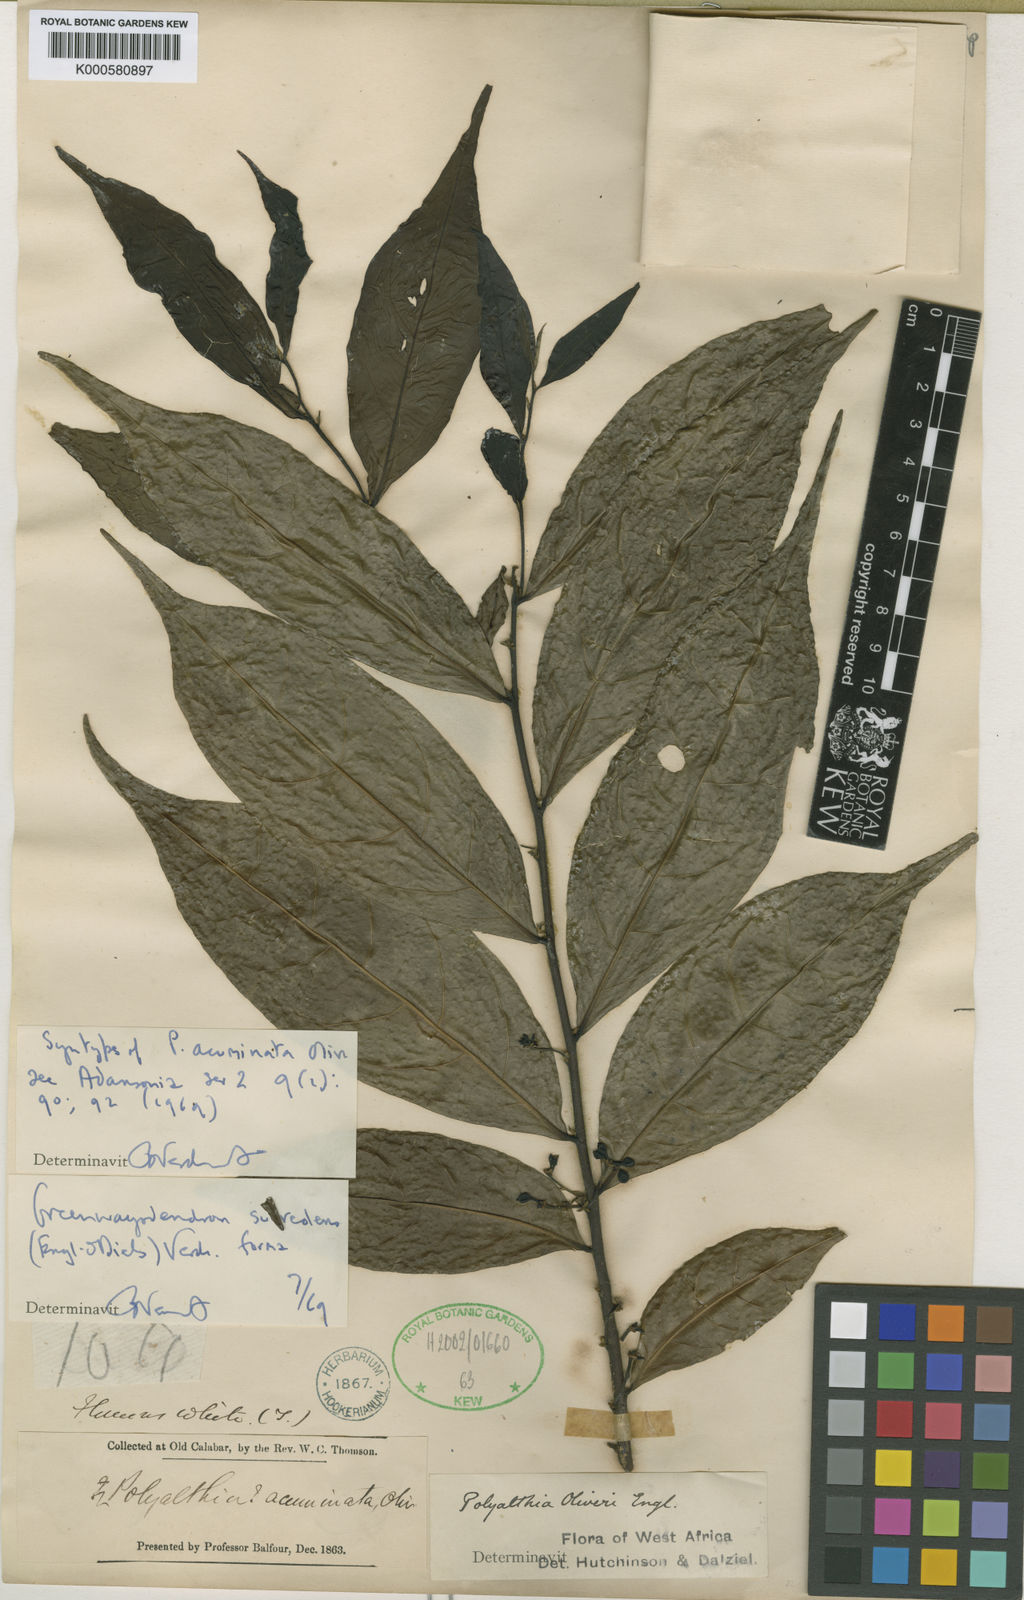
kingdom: Plantae
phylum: Tracheophyta
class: Magnoliopsida
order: Magnoliales
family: Annonaceae
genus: Greenwayodendron
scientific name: Greenwayodendron oliveri
